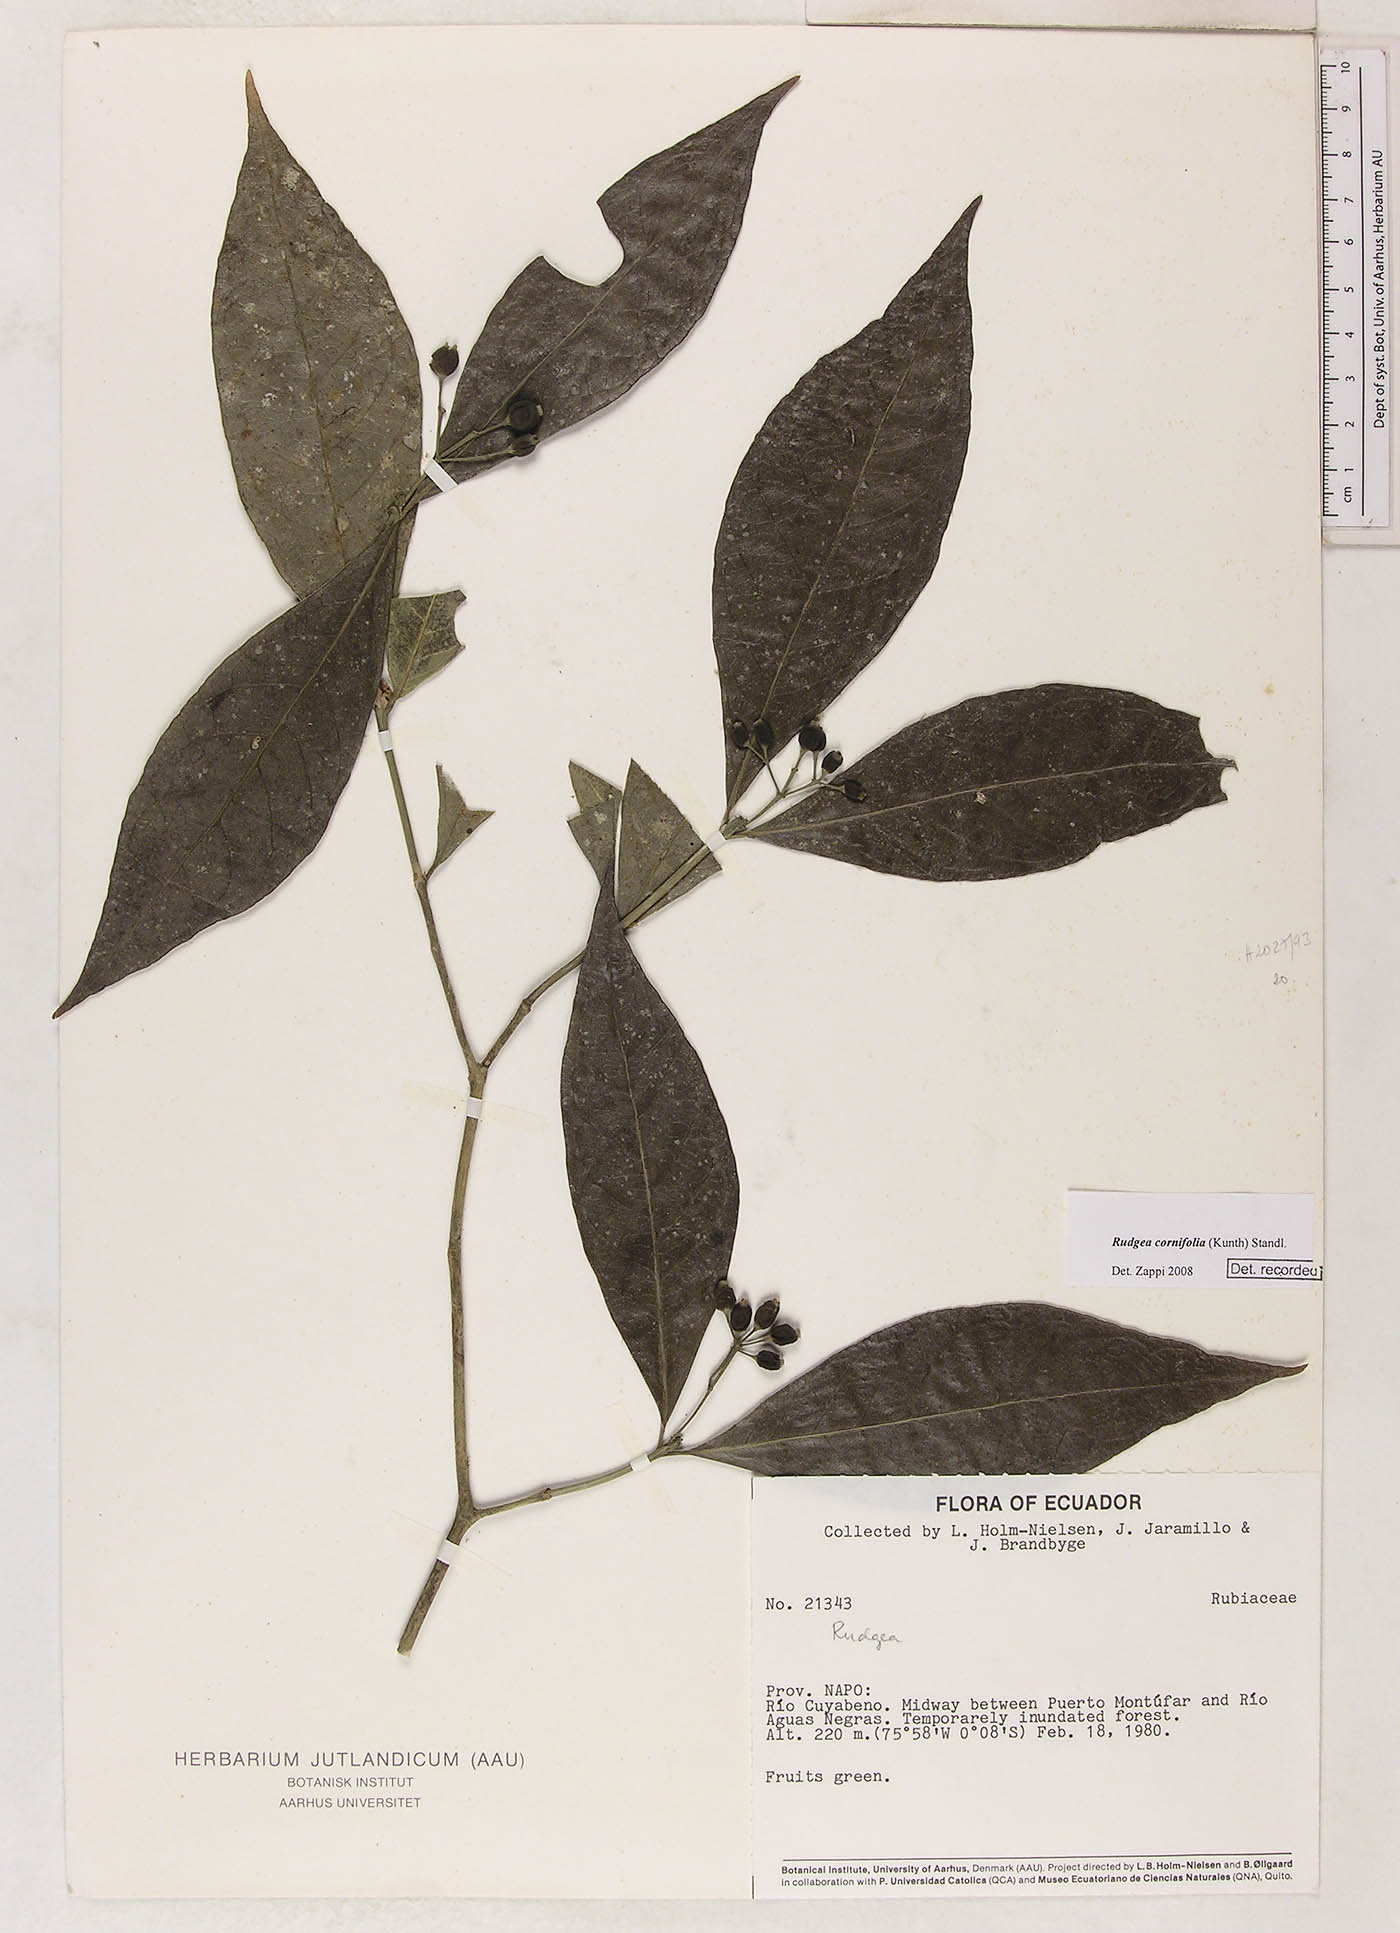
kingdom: Plantae
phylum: Tracheophyta
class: Magnoliopsida
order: Gentianales
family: Rubiaceae
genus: Rudgea
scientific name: Rudgea cornifolia
